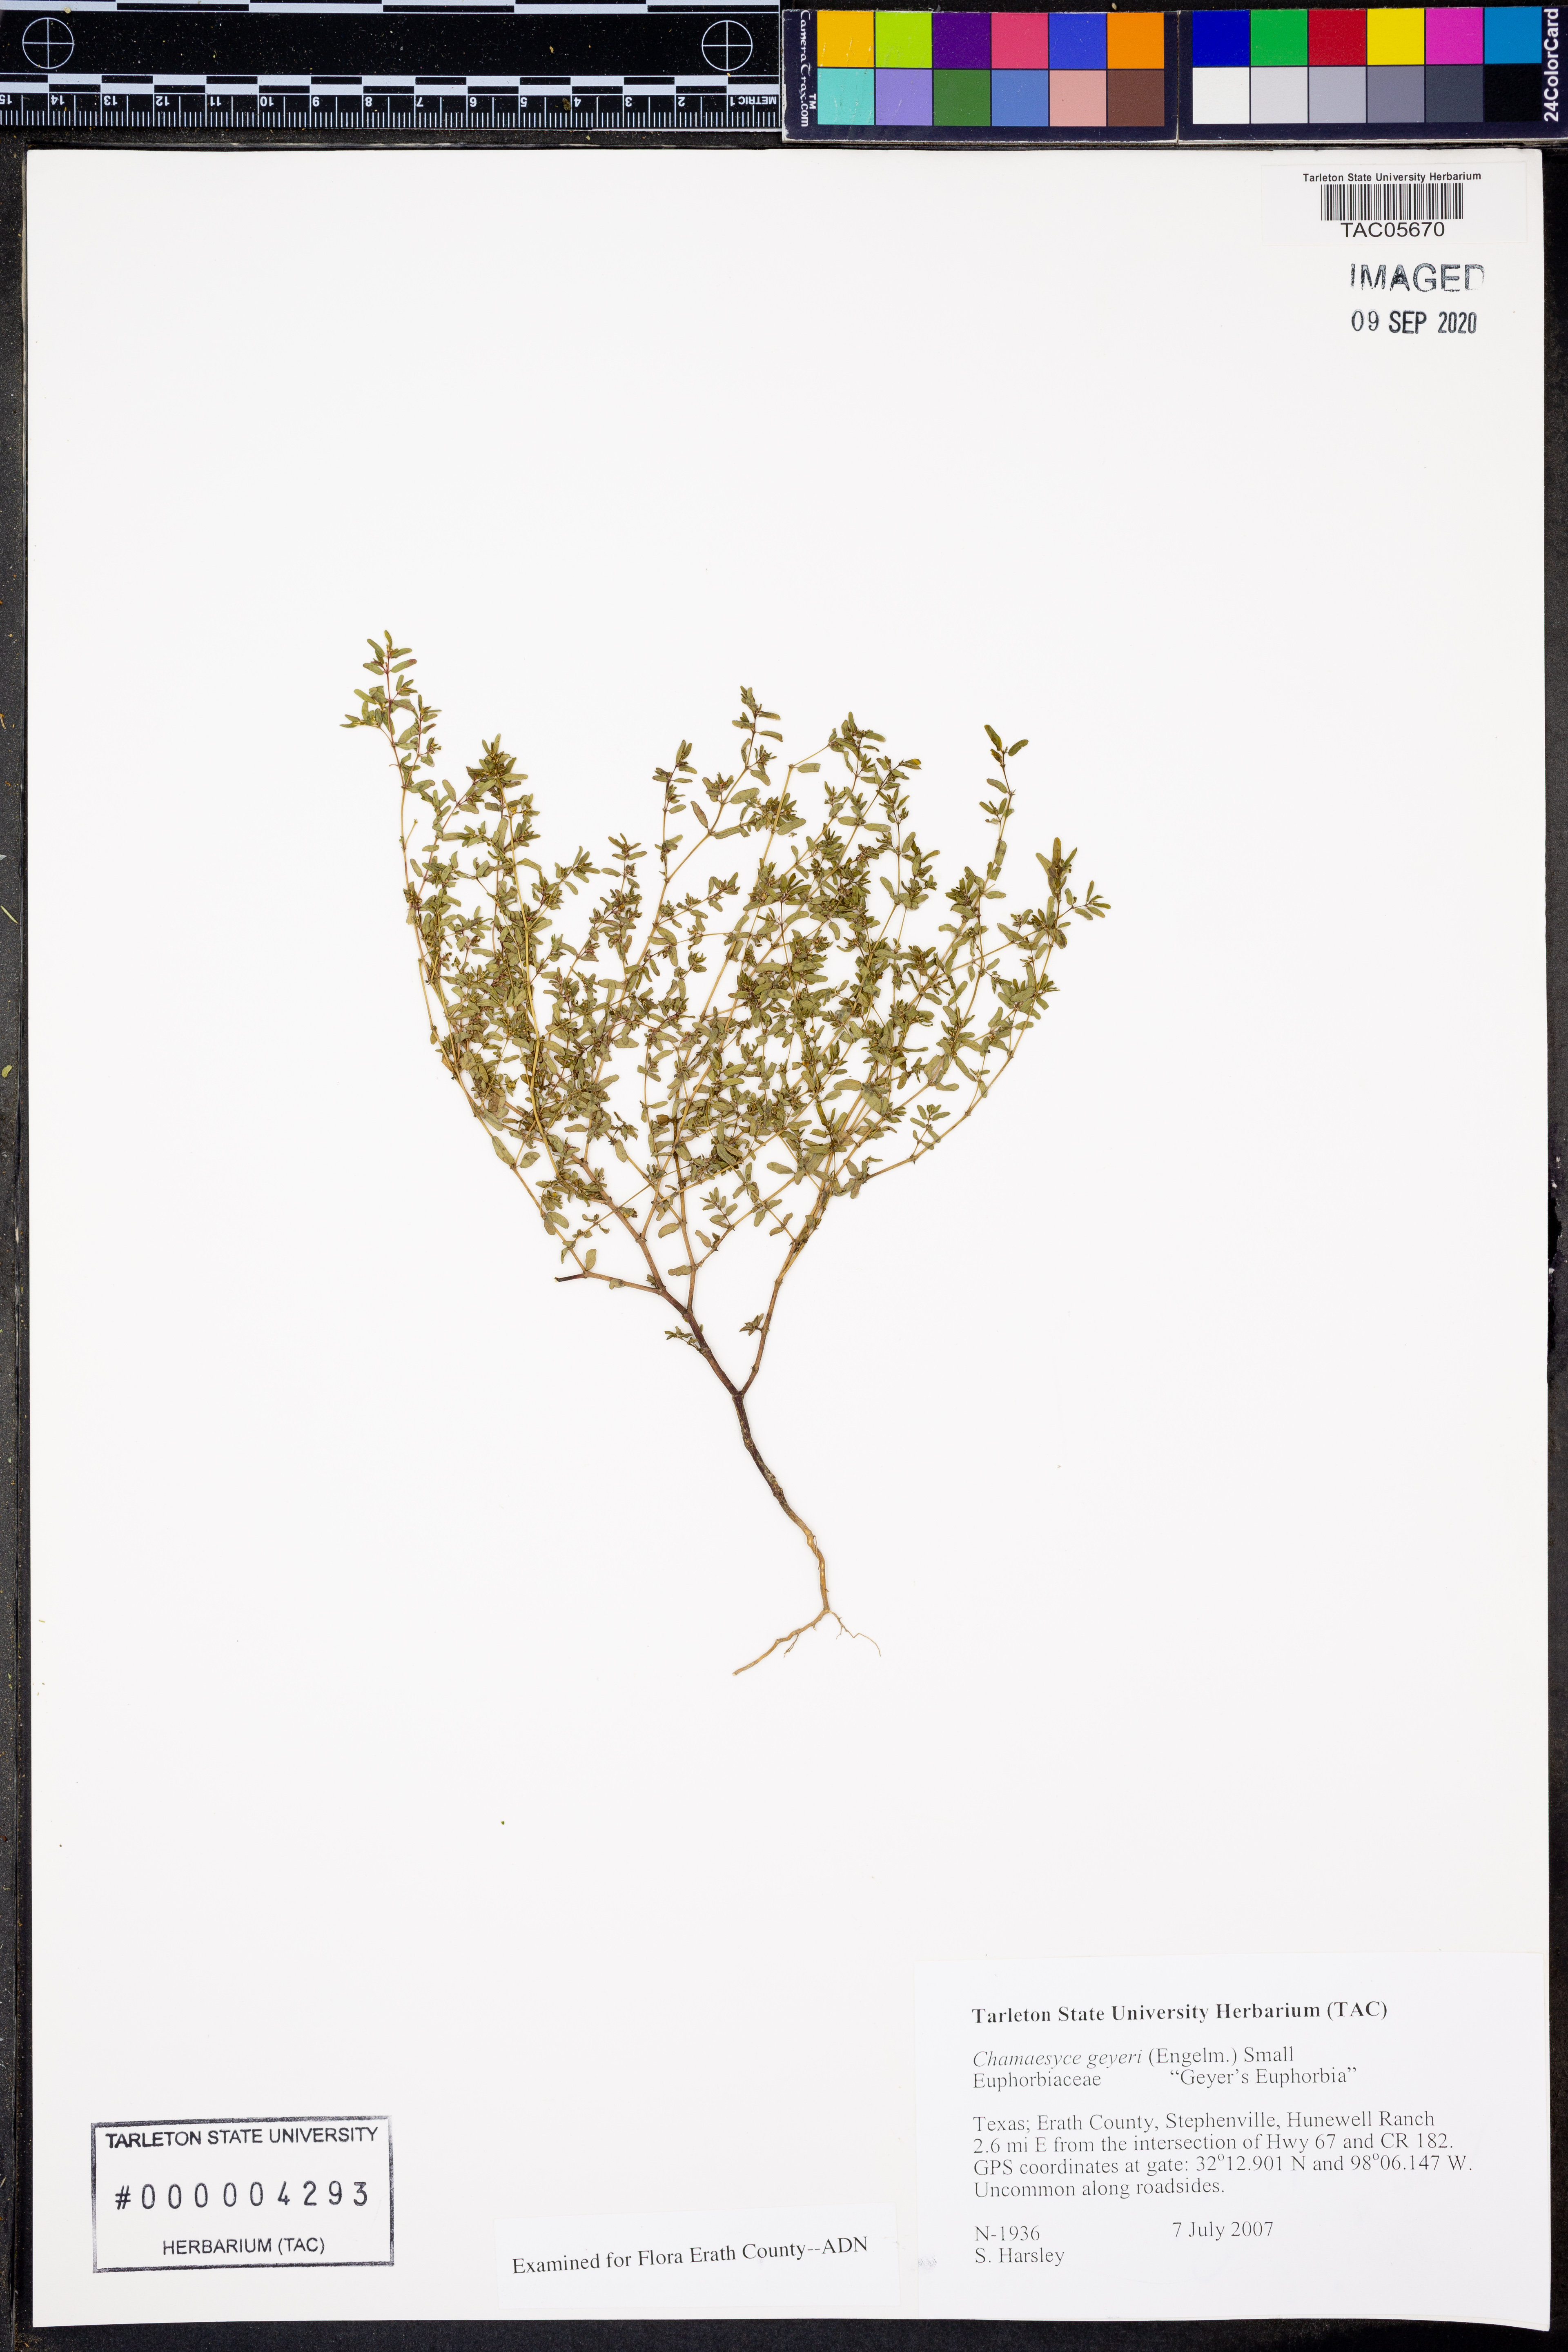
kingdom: Plantae
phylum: Tracheophyta
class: Magnoliopsida
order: Malpighiales
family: Euphorbiaceae
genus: Euphorbia
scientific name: Euphorbia geyeri
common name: Geyer's spurge
